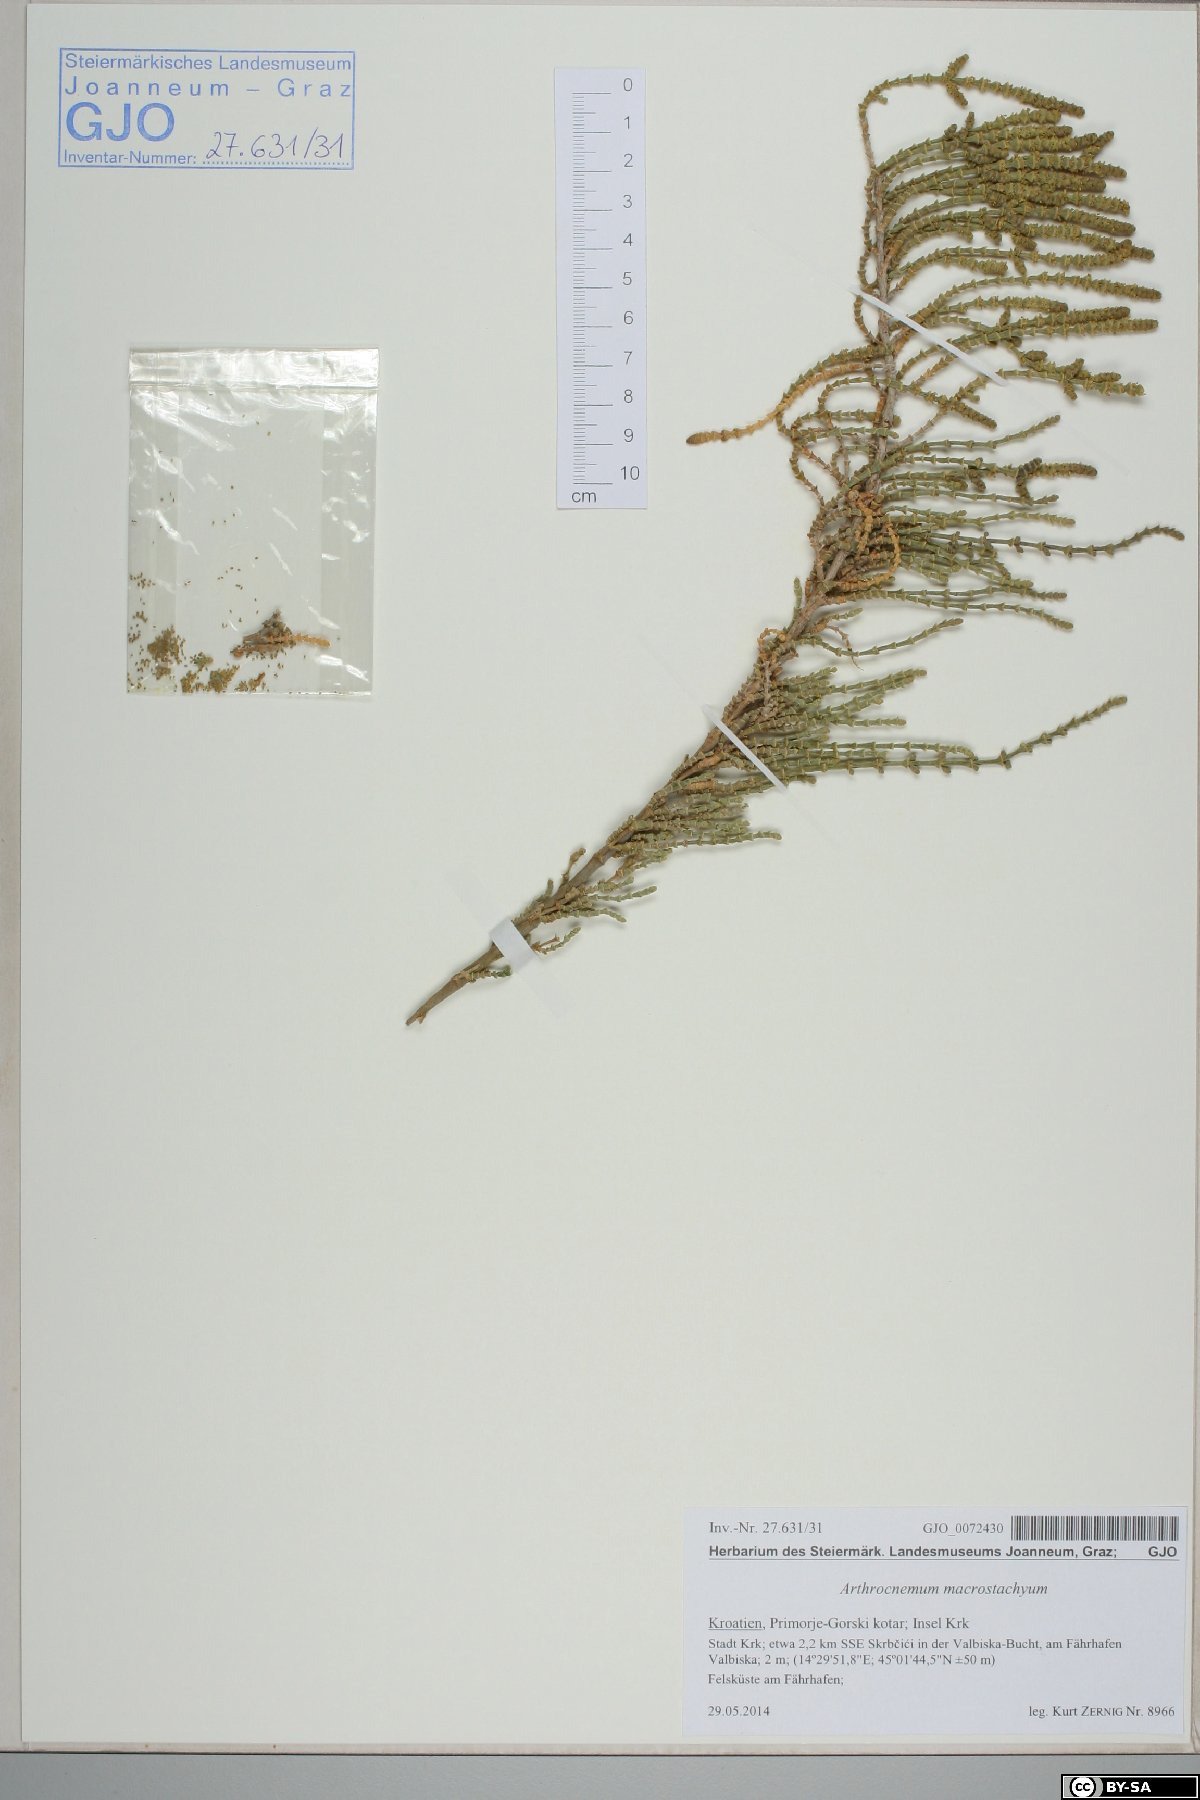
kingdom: Plantae
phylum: Tracheophyta
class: Magnoliopsida
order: Caryophyllales
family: Amaranthaceae
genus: Arthrocaulon
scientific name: Arthrocaulon macrostachyum
